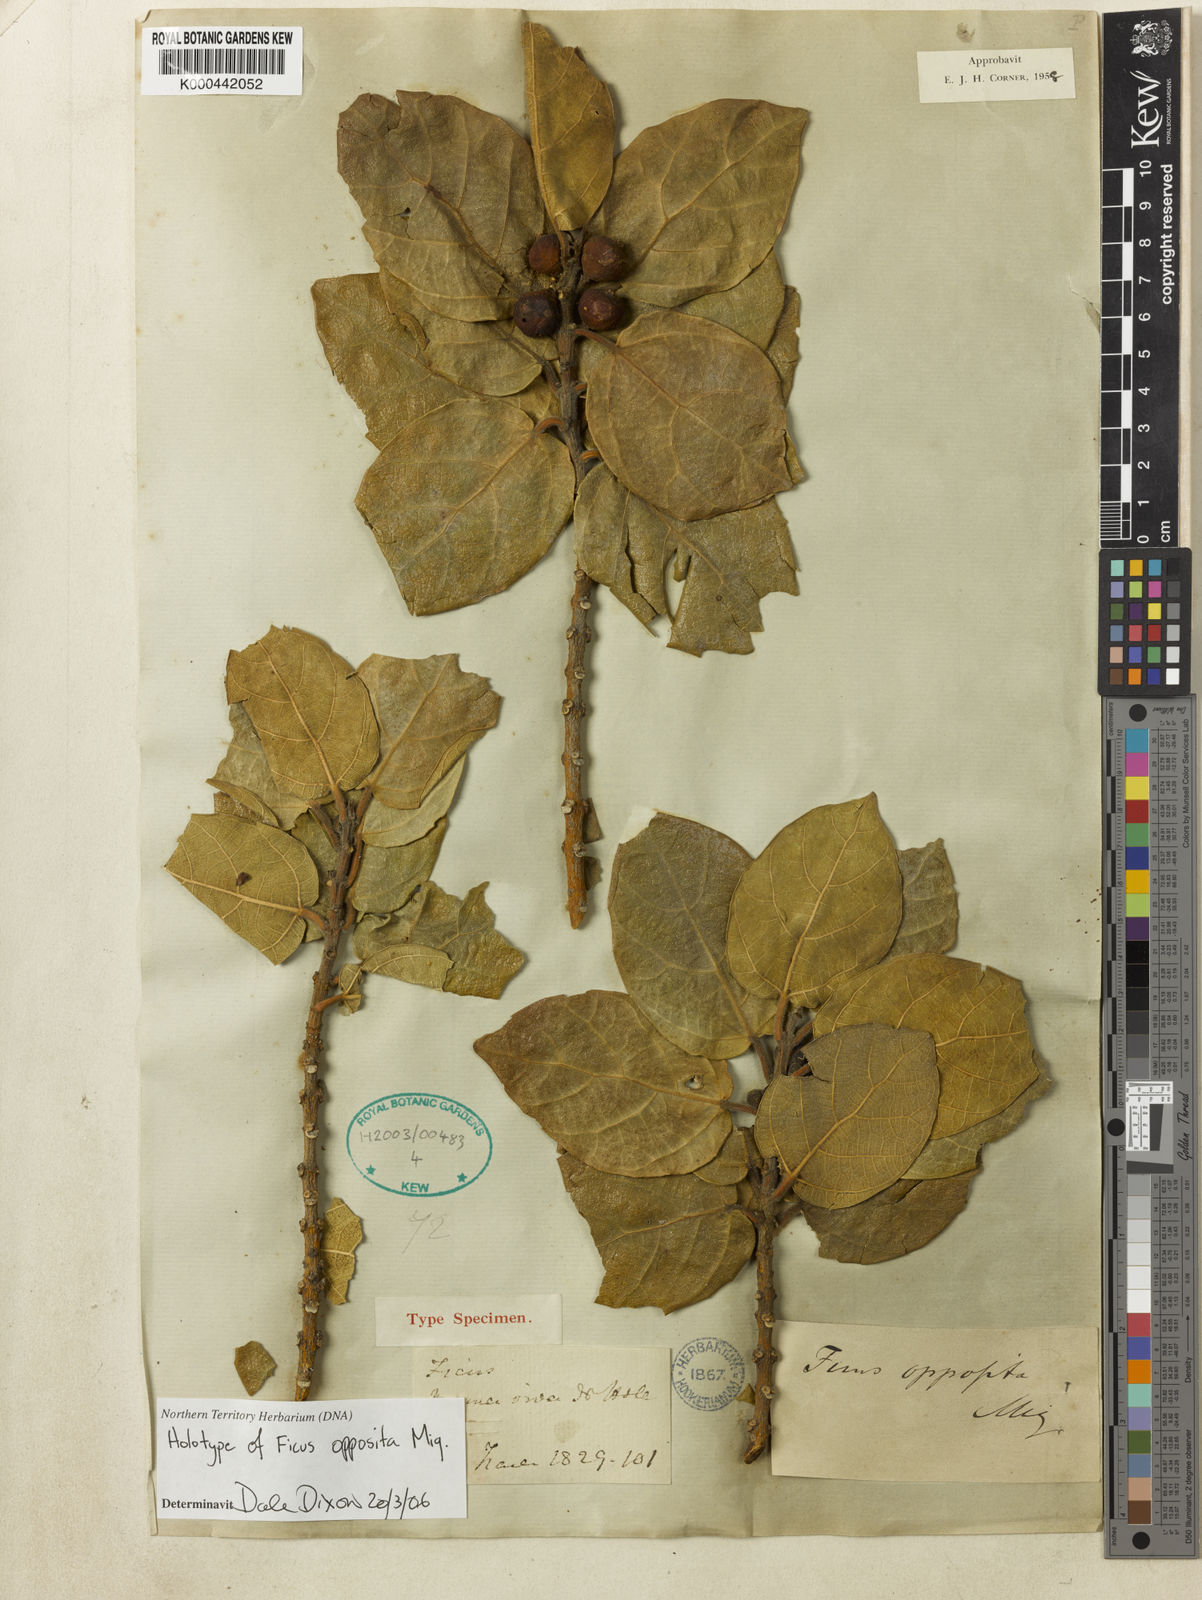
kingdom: Plantae
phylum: Tracheophyta
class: Magnoliopsida
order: Rosales
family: Moraceae
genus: Ficus
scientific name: Ficus opposita
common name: Figwood
